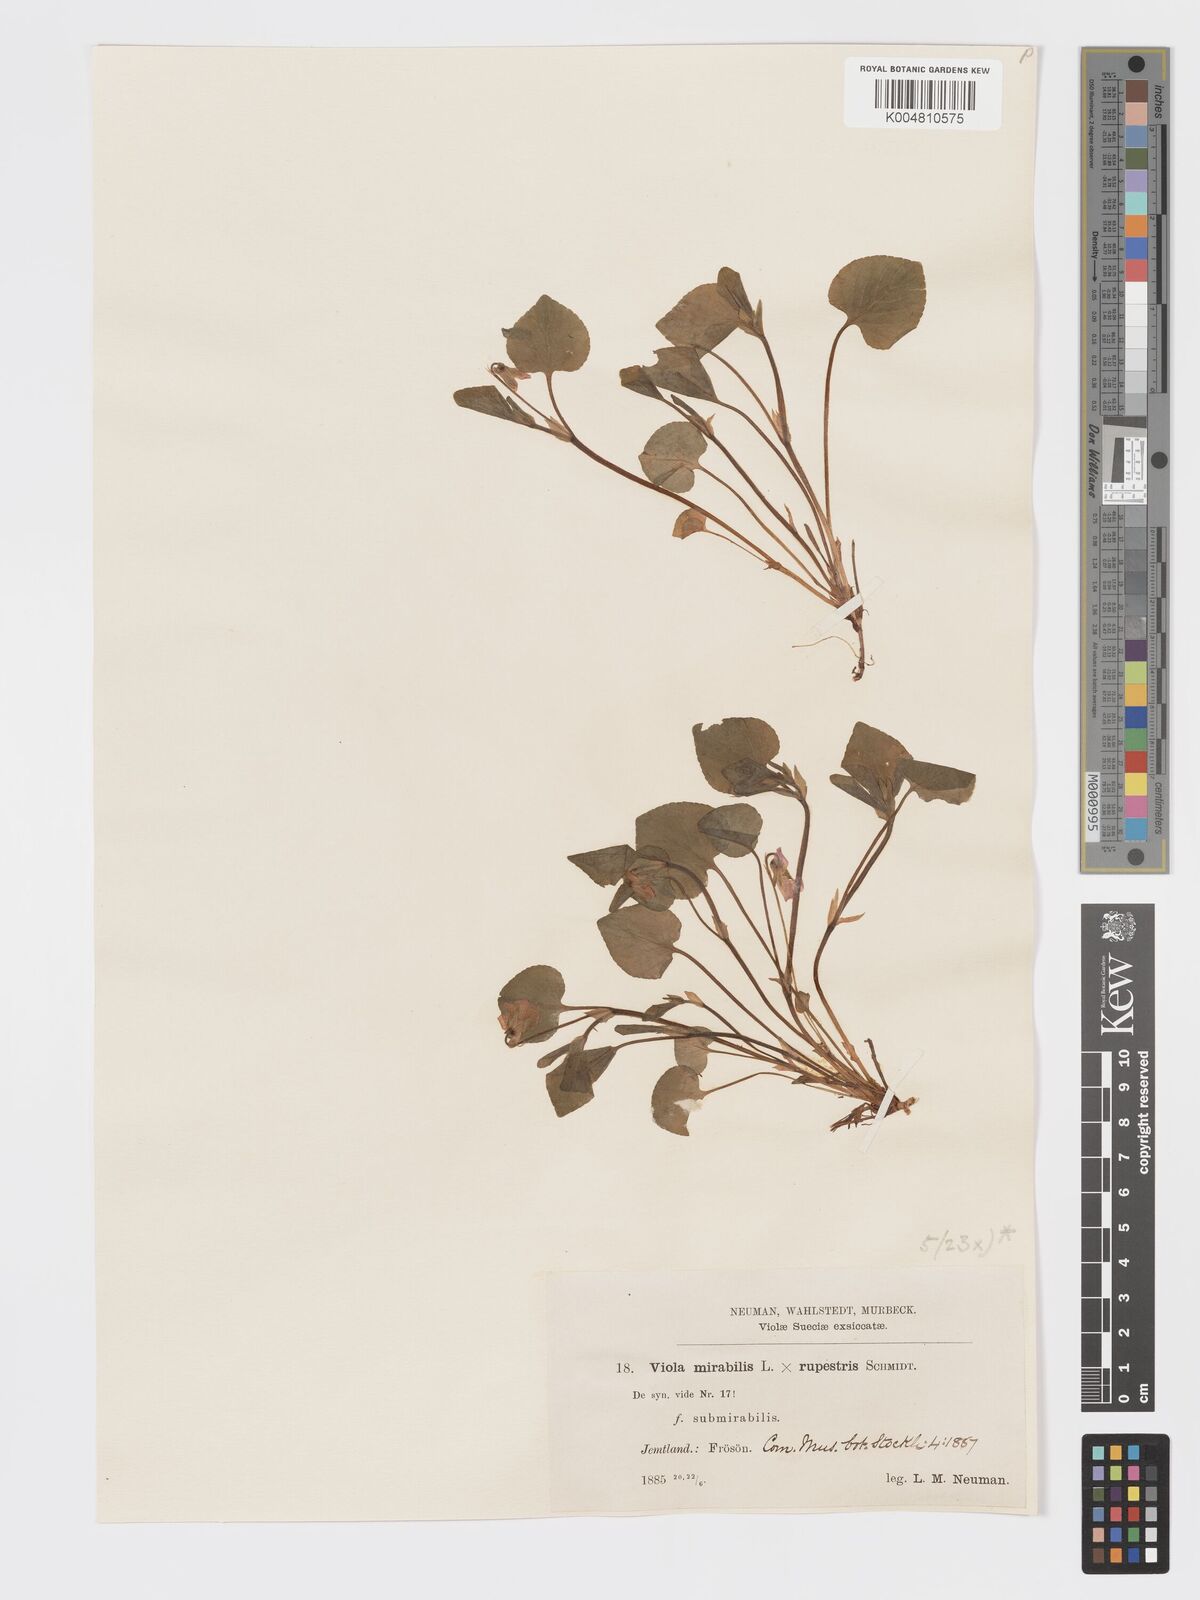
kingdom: Plantae
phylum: Tracheophyta
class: Magnoliopsida
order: Malpighiales
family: Violaceae
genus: Viola
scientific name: Viola mirabilis
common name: Wonder violet
